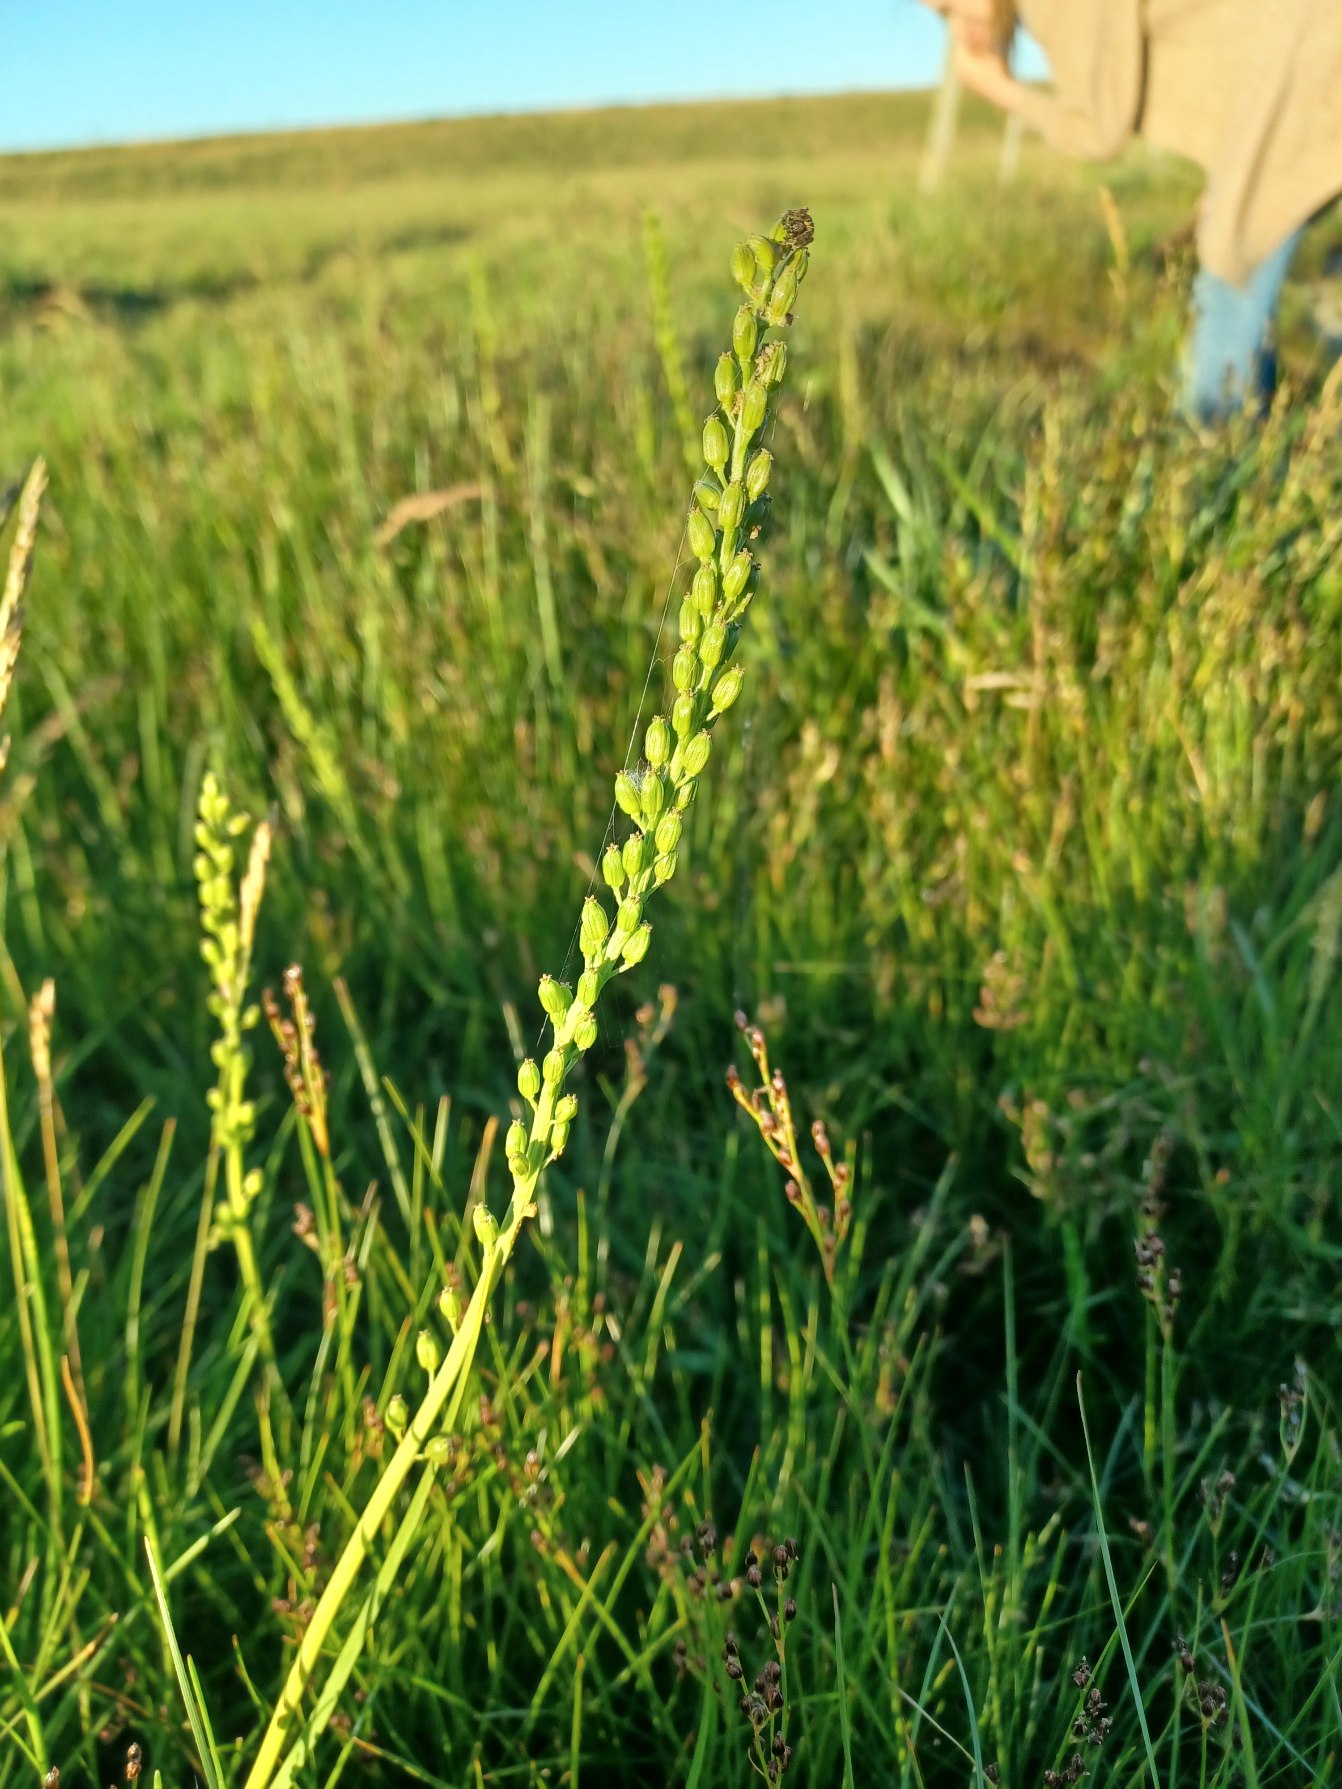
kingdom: Plantae
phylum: Tracheophyta
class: Liliopsida
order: Alismatales
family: Juncaginaceae
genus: Triglochin
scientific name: Triglochin maritima
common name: Strand-trehage
